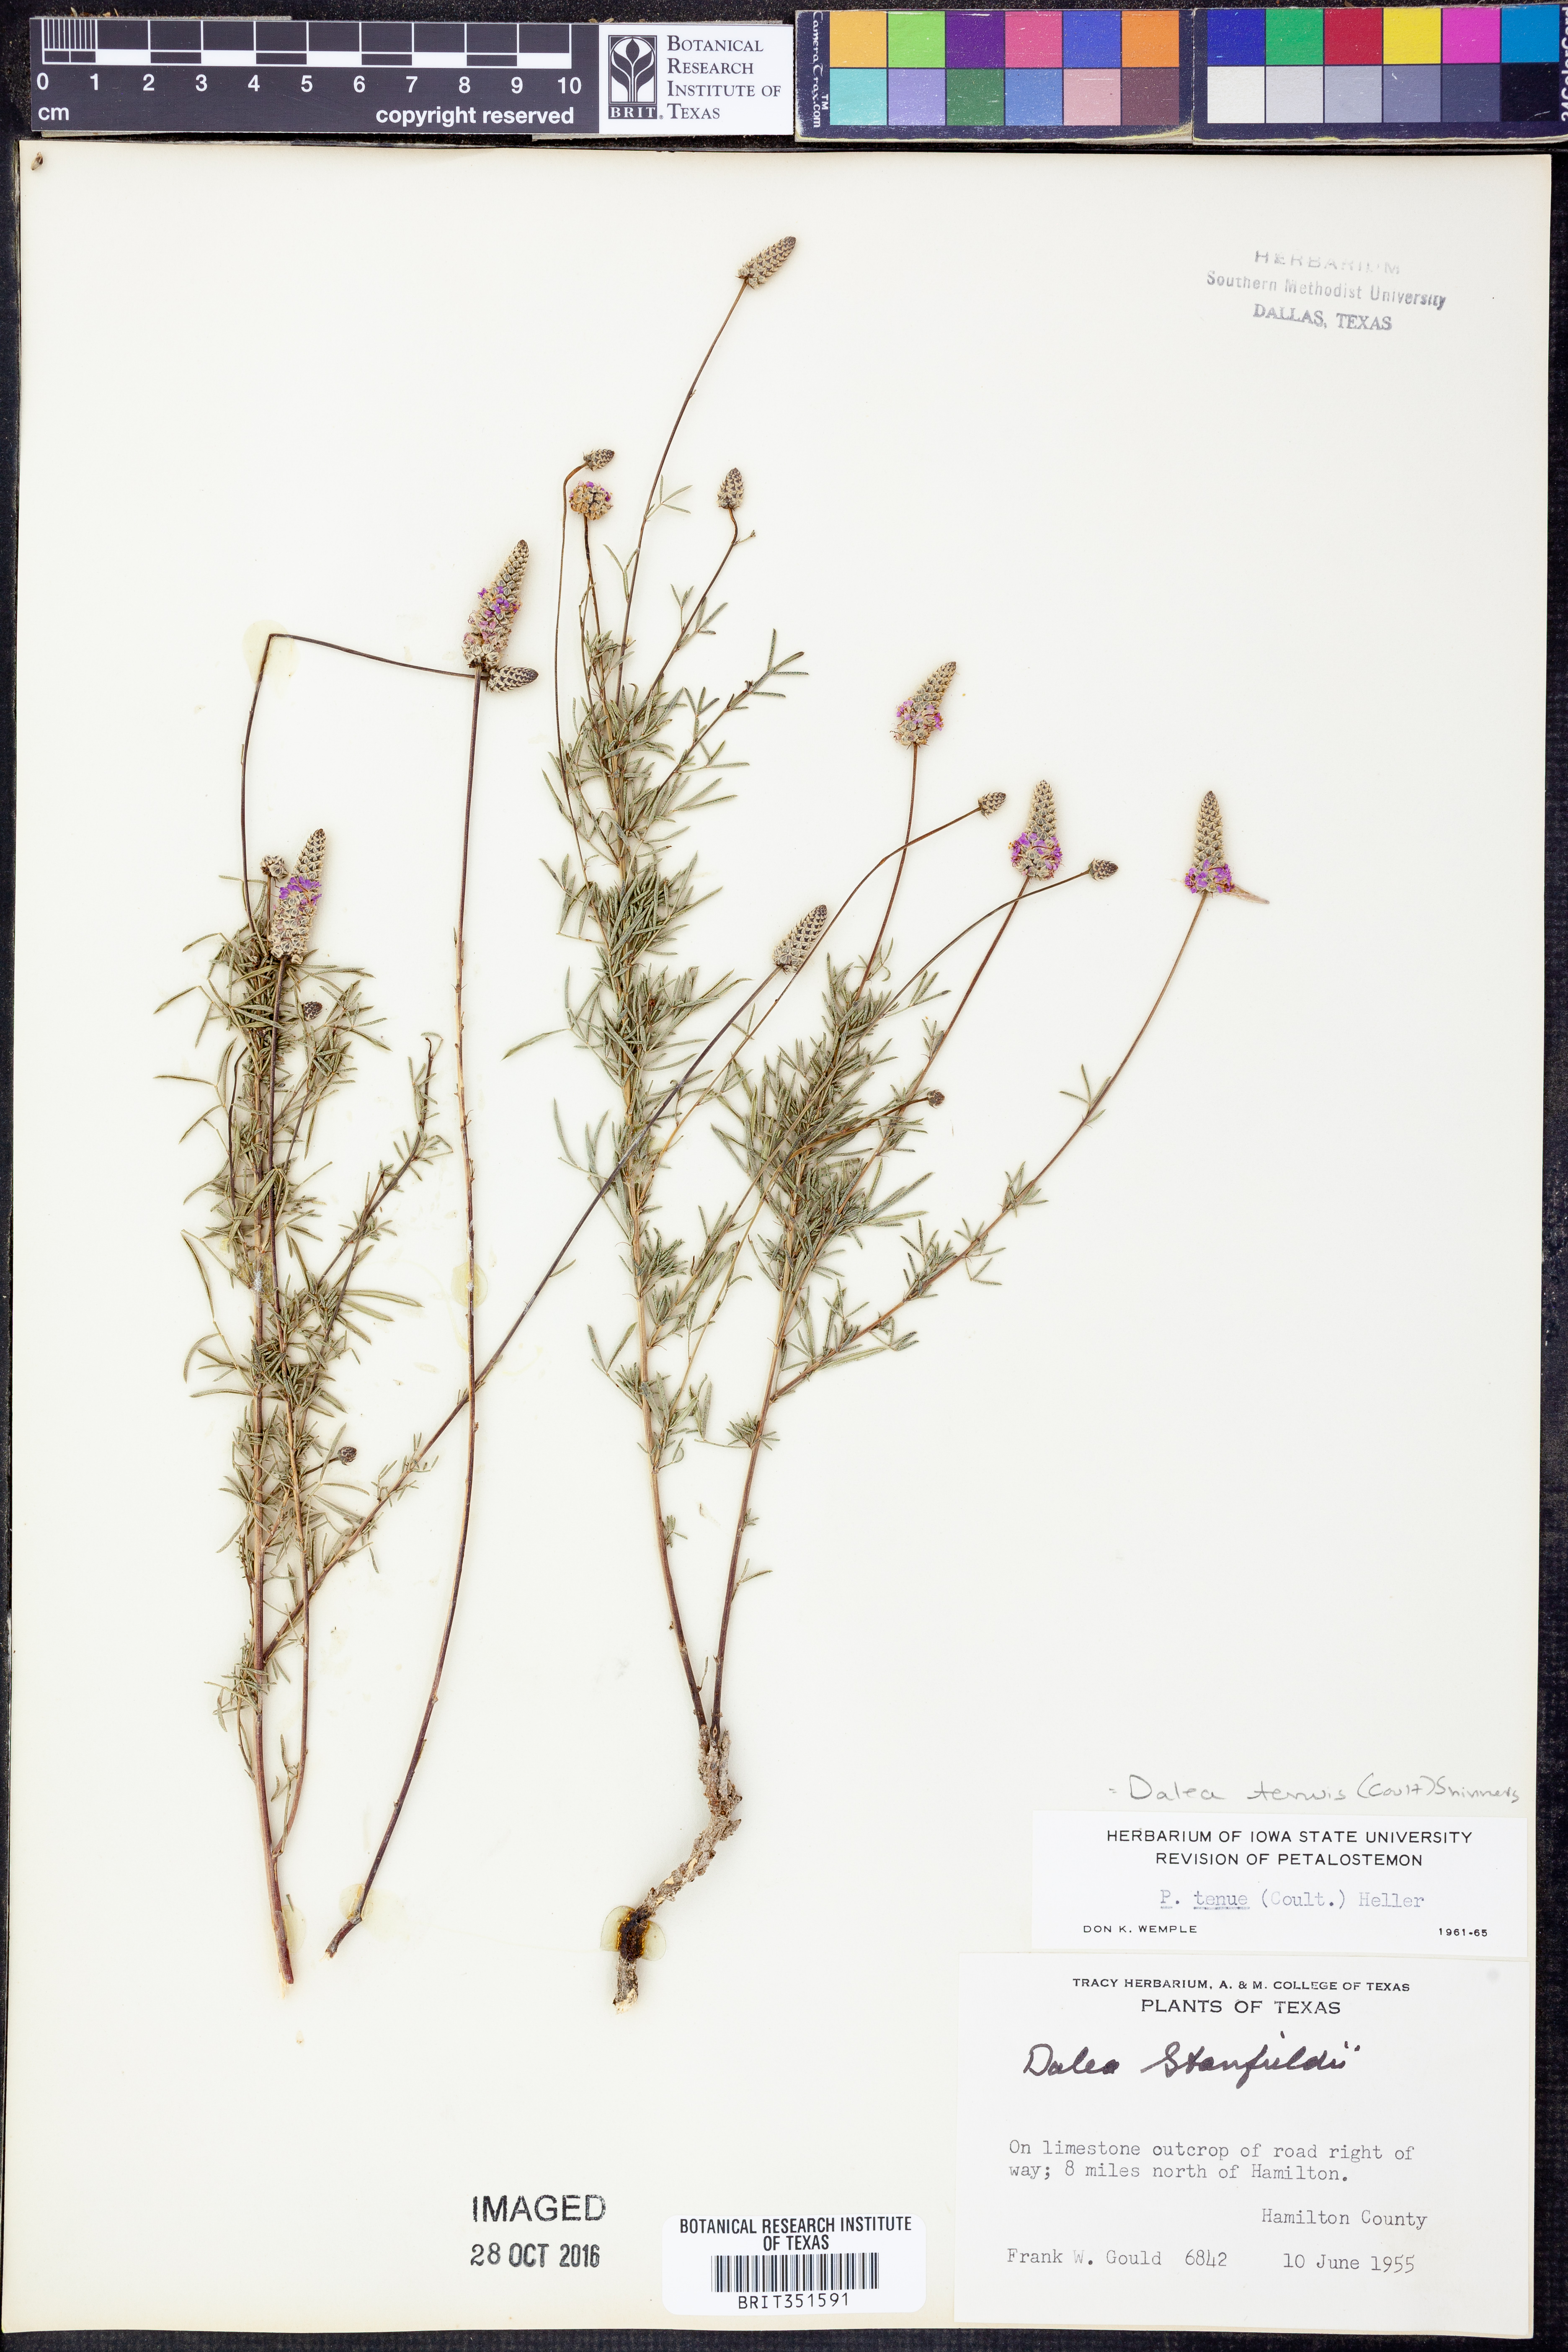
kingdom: Plantae
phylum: Tracheophyta
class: Magnoliopsida
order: Fabales
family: Fabaceae
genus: Dalea
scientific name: Dalea tenuis
